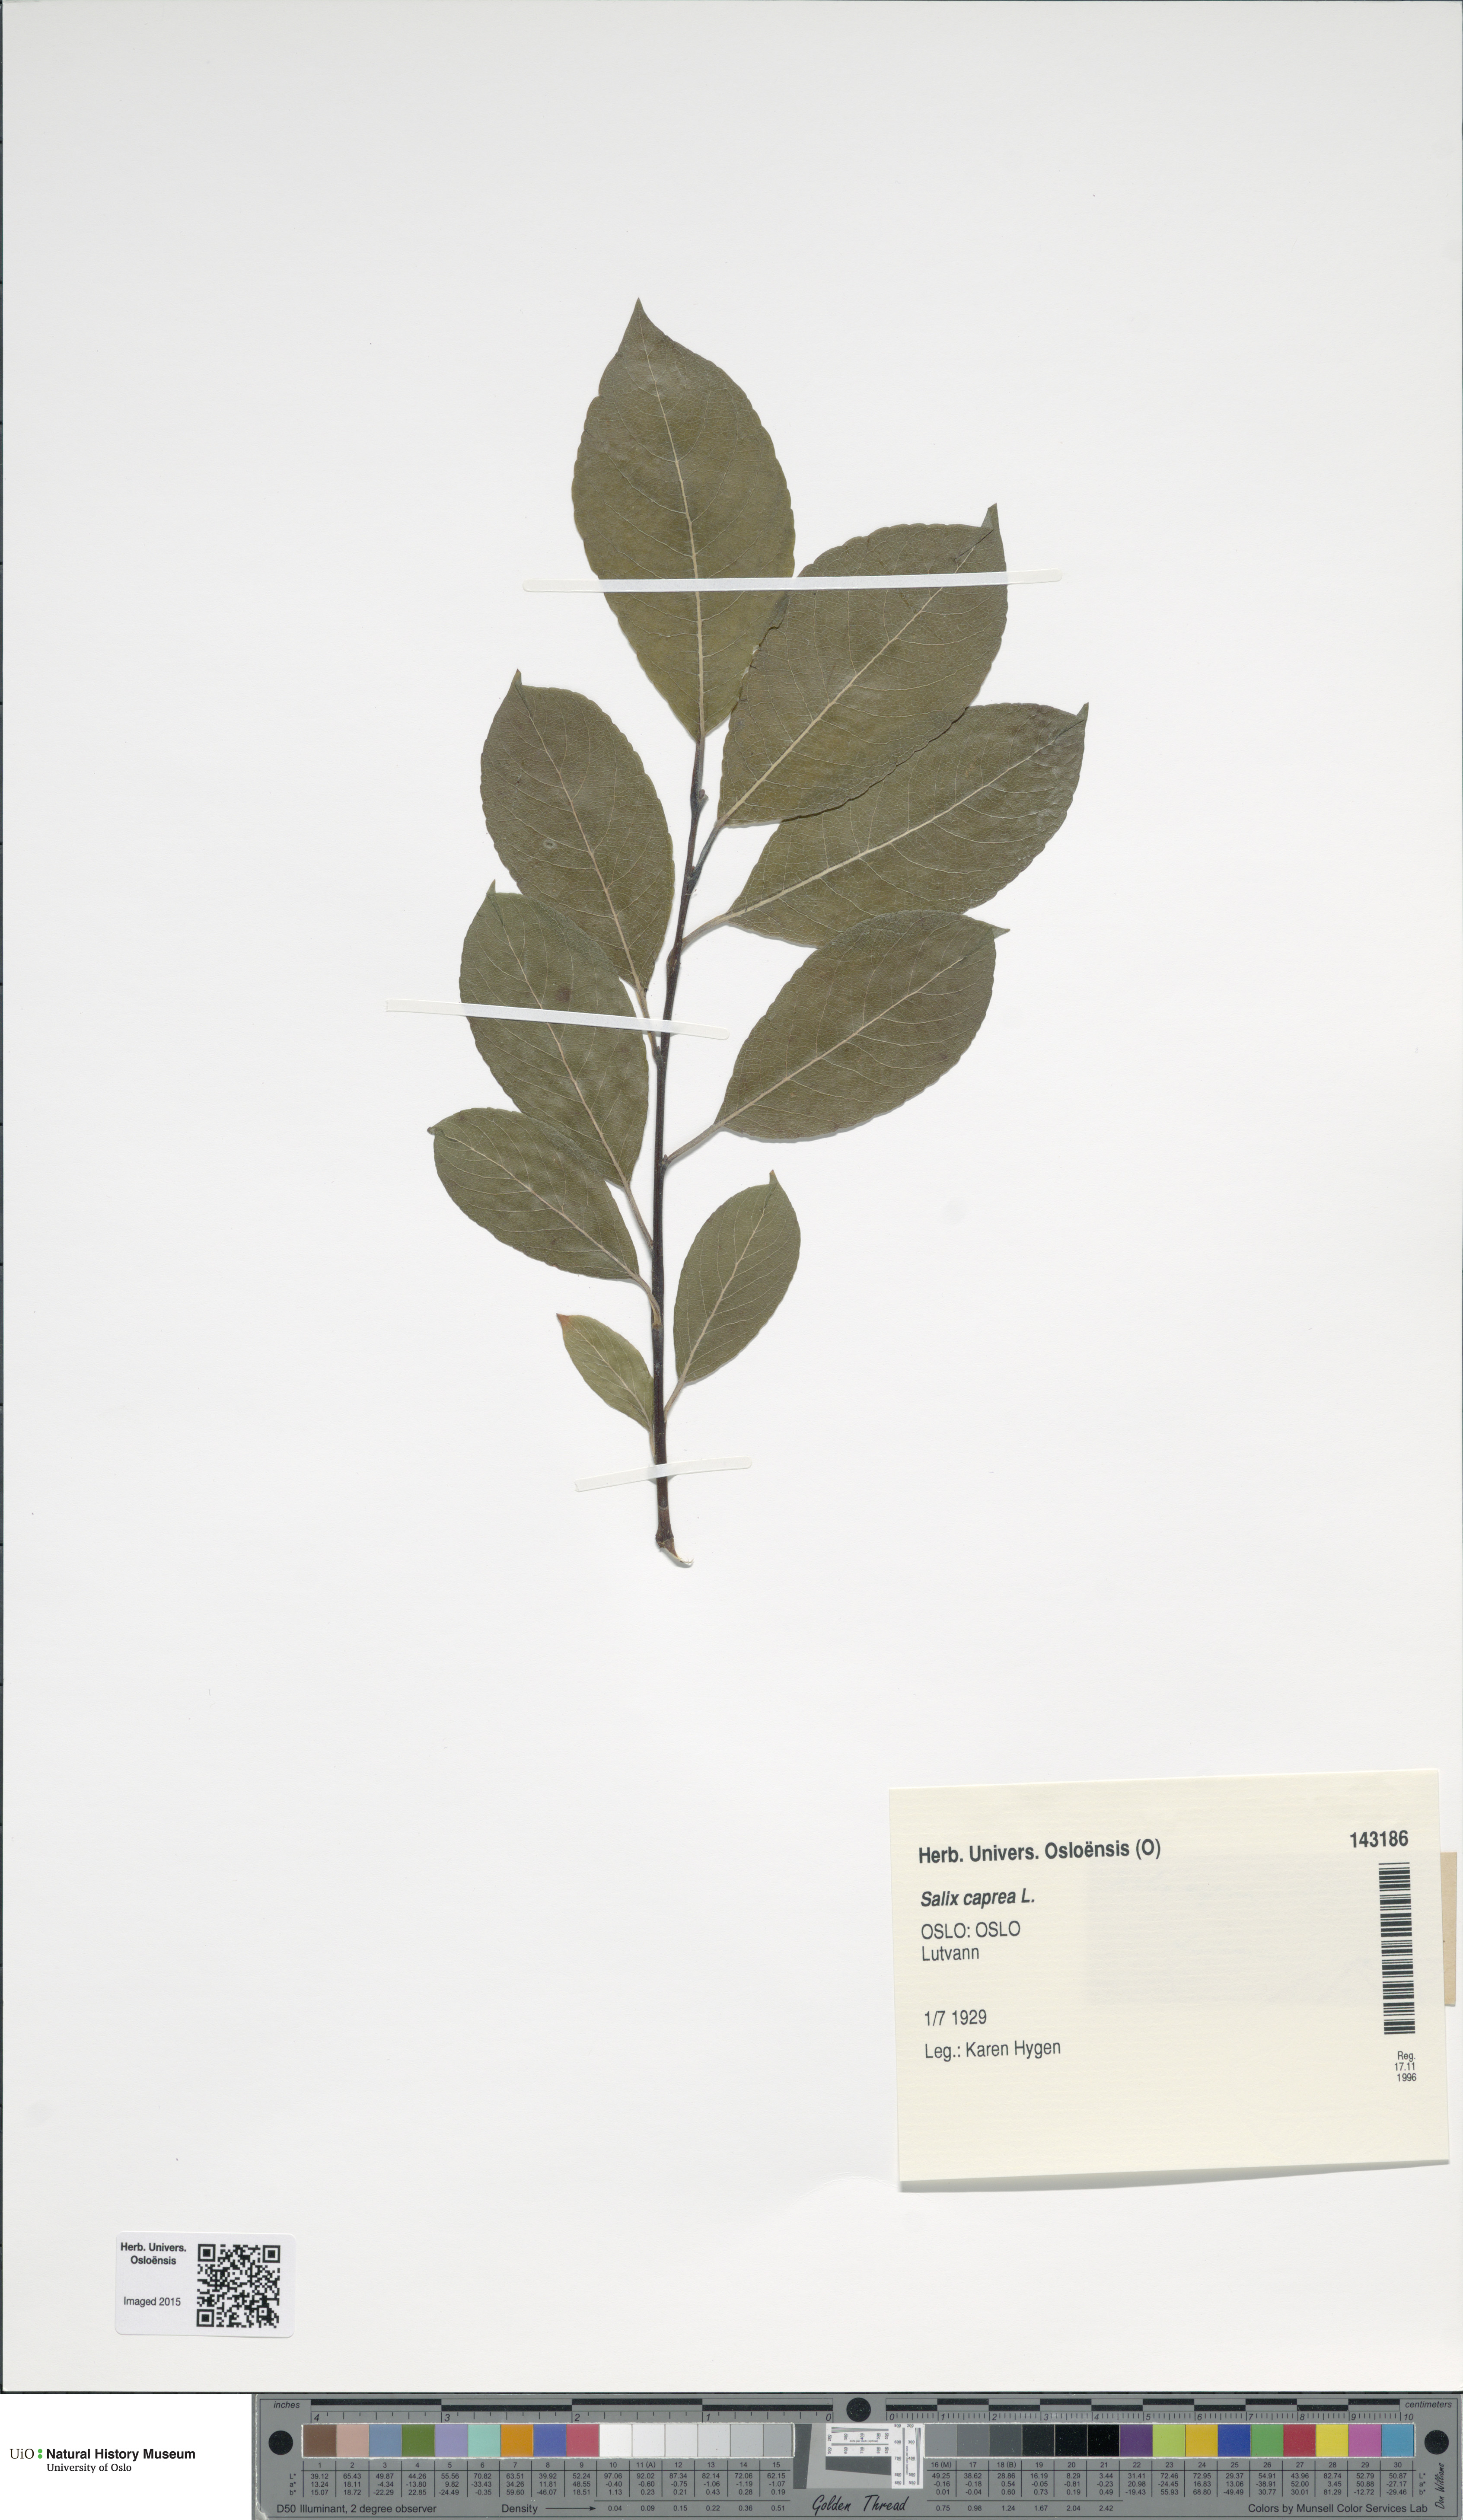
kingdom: Plantae
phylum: Tracheophyta
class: Magnoliopsida
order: Malpighiales
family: Salicaceae
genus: Salix
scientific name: Salix caprea
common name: Goat willow
